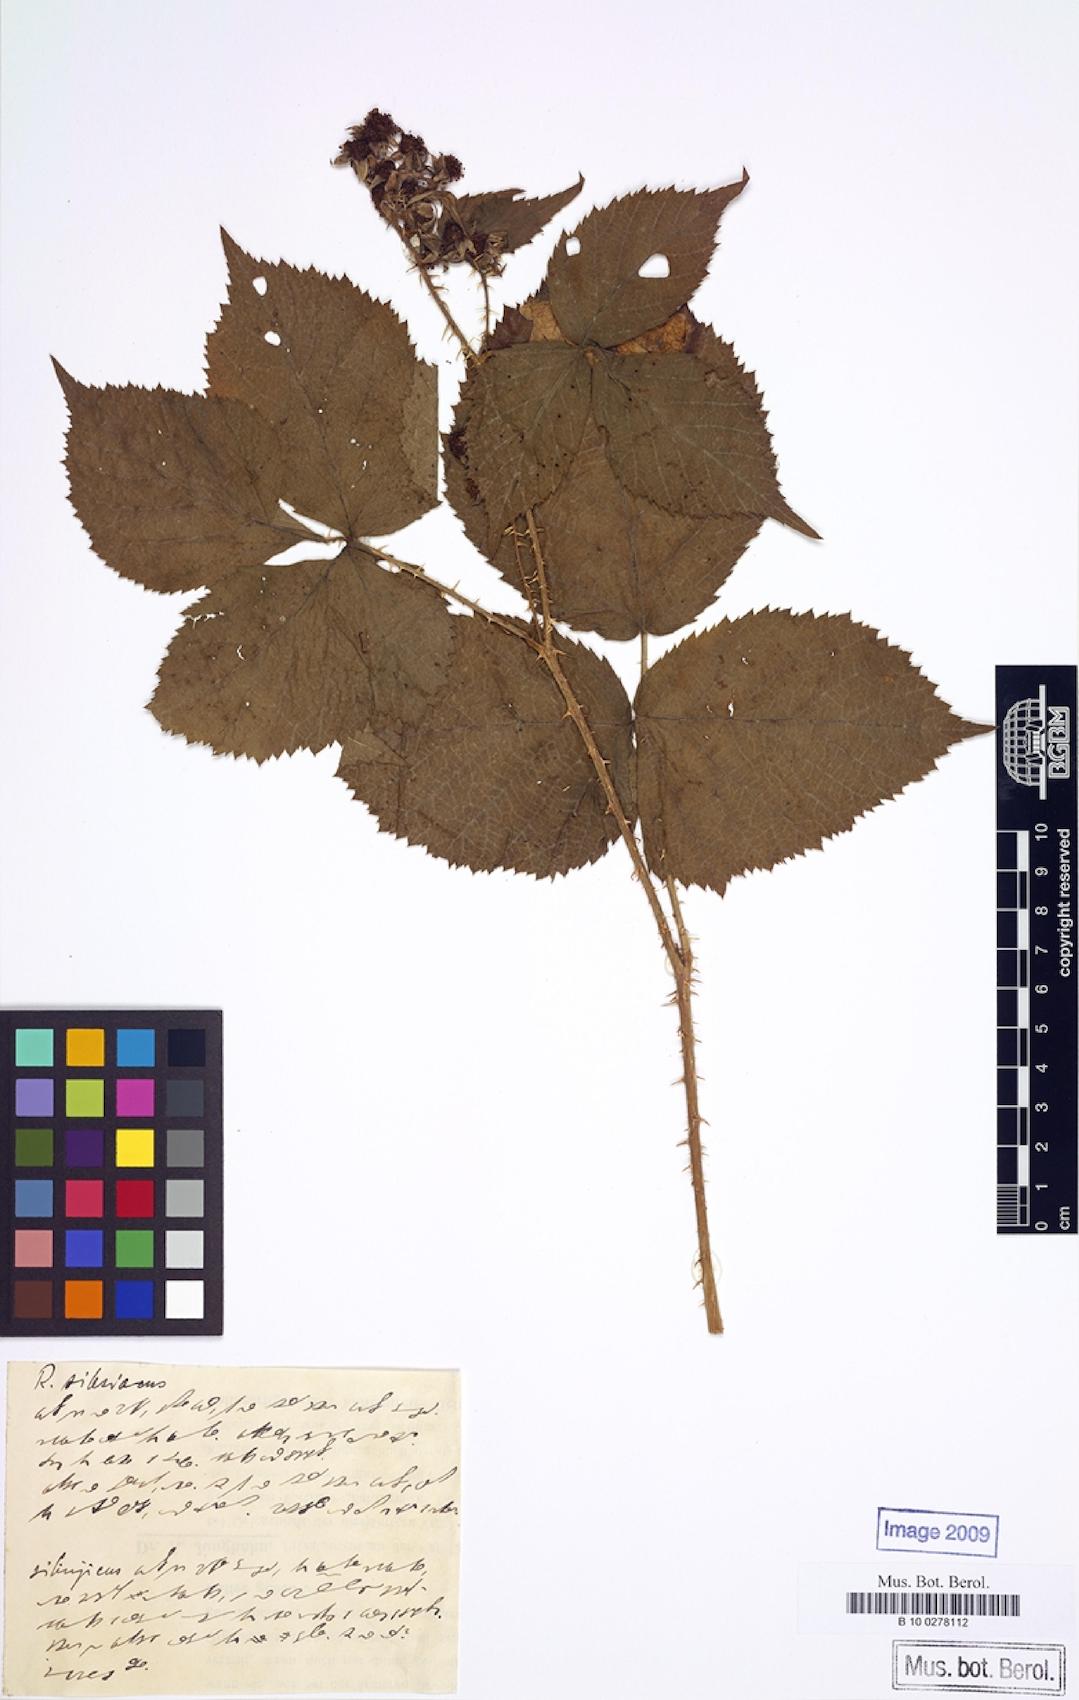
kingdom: Plantae
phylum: Tracheophyta
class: Magnoliopsida
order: Rosales
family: Rosaceae
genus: Rubus
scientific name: Rubus laticors
